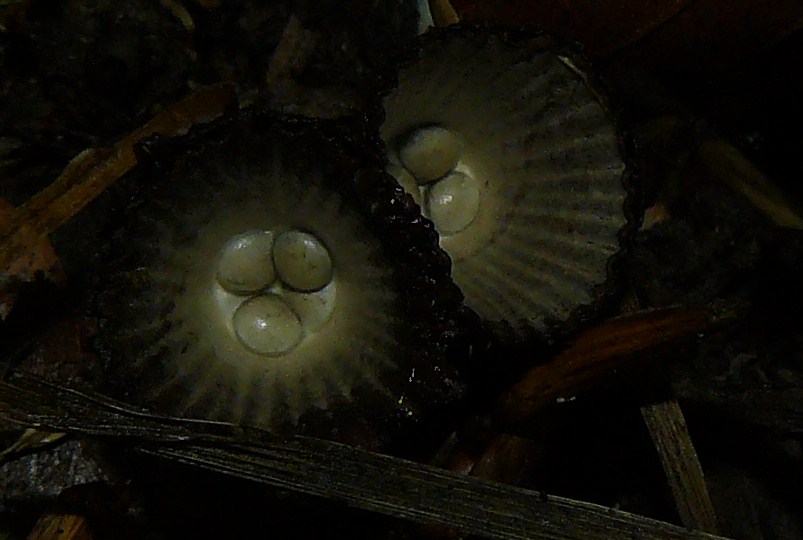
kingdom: Fungi
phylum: Basidiomycota
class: Agaricomycetes
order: Agaricales
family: Agaricaceae
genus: Cyathus
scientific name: Cyathus striatus
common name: stribet redesvamp
